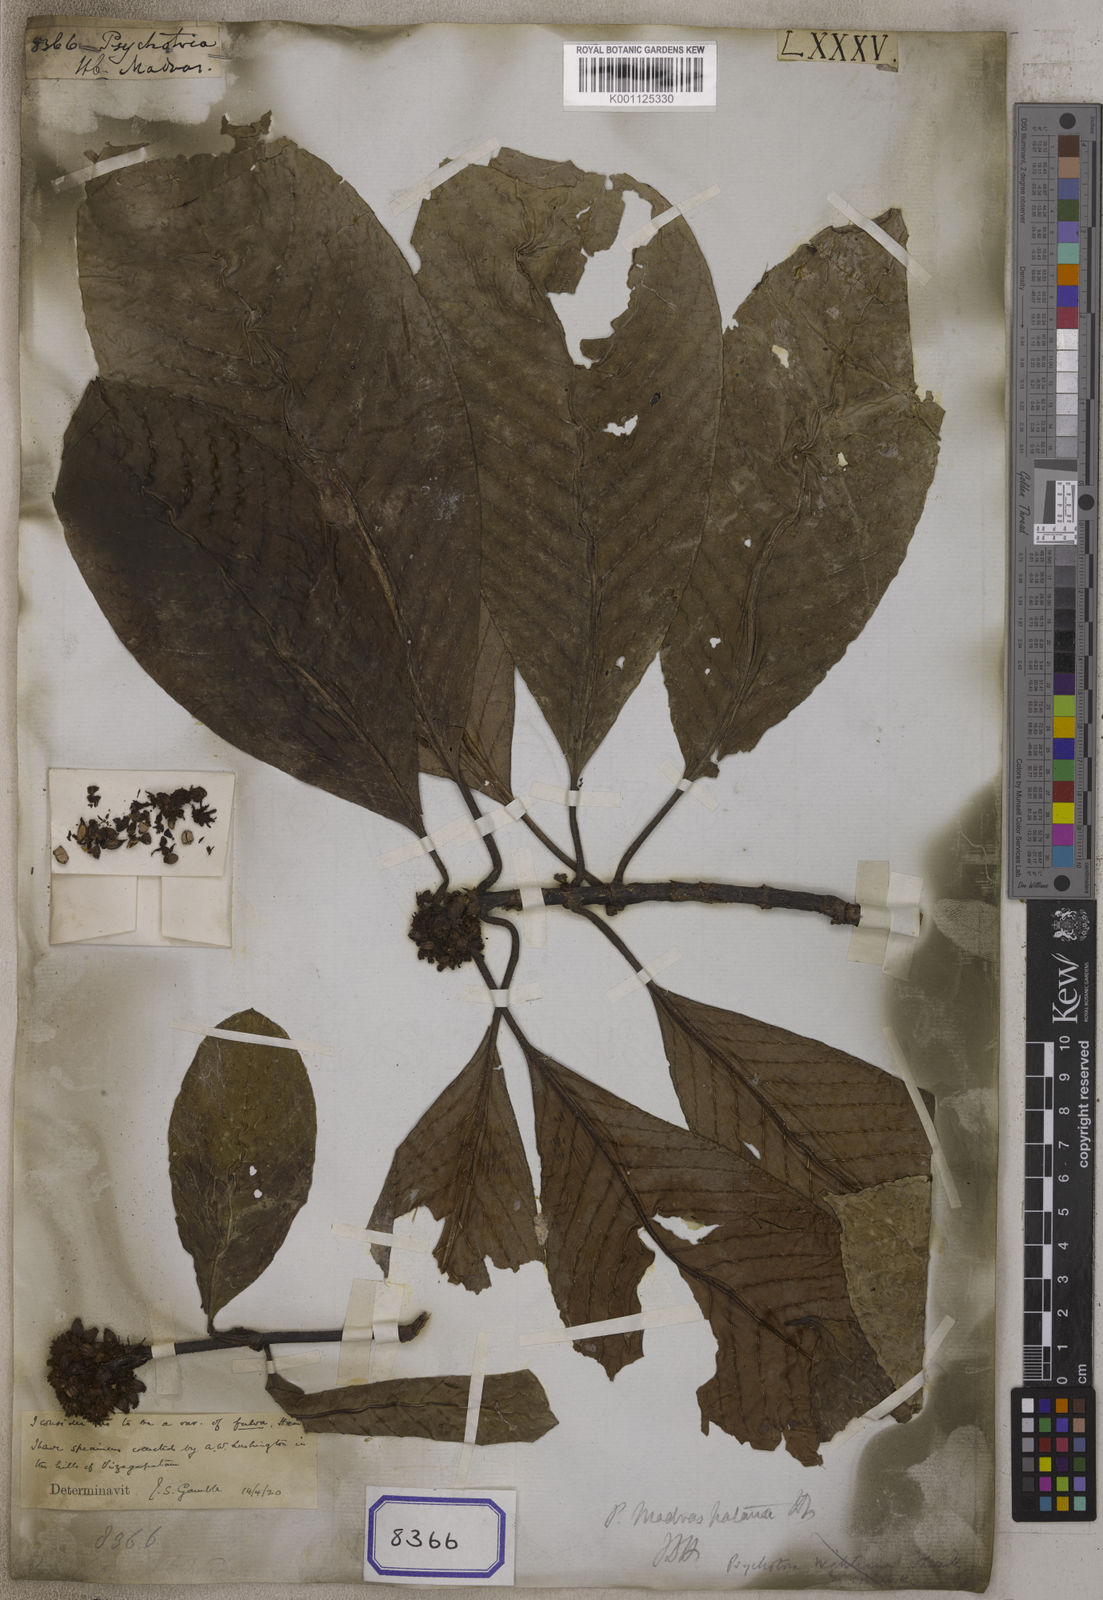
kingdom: Plantae
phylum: Tracheophyta
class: Magnoliopsida
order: Gentianales
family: Rubiaceae
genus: Psychotria
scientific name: Psychotria
